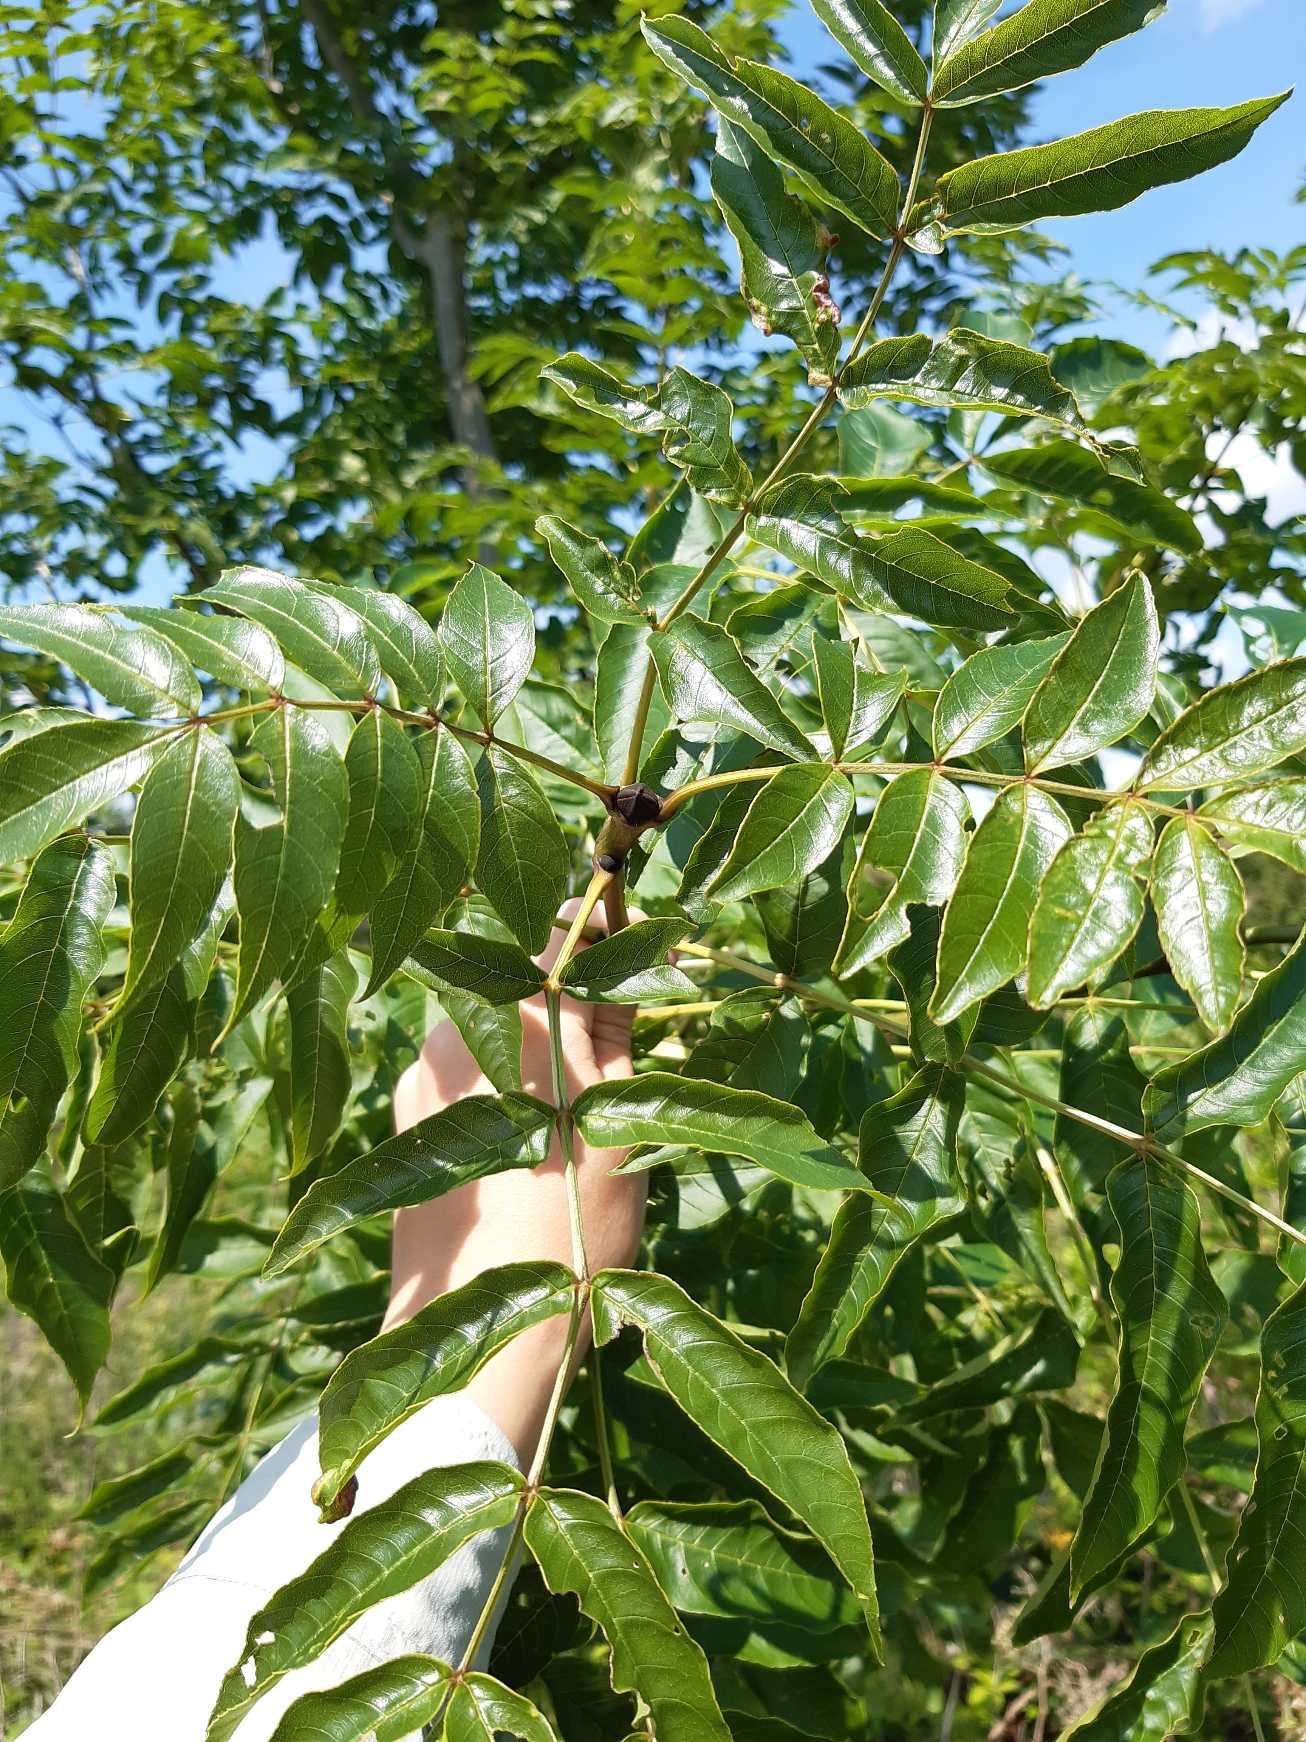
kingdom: Plantae
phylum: Tracheophyta
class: Magnoliopsida
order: Lamiales
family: Oleaceae
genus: Fraxinus
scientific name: Fraxinus excelsior
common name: Ask
